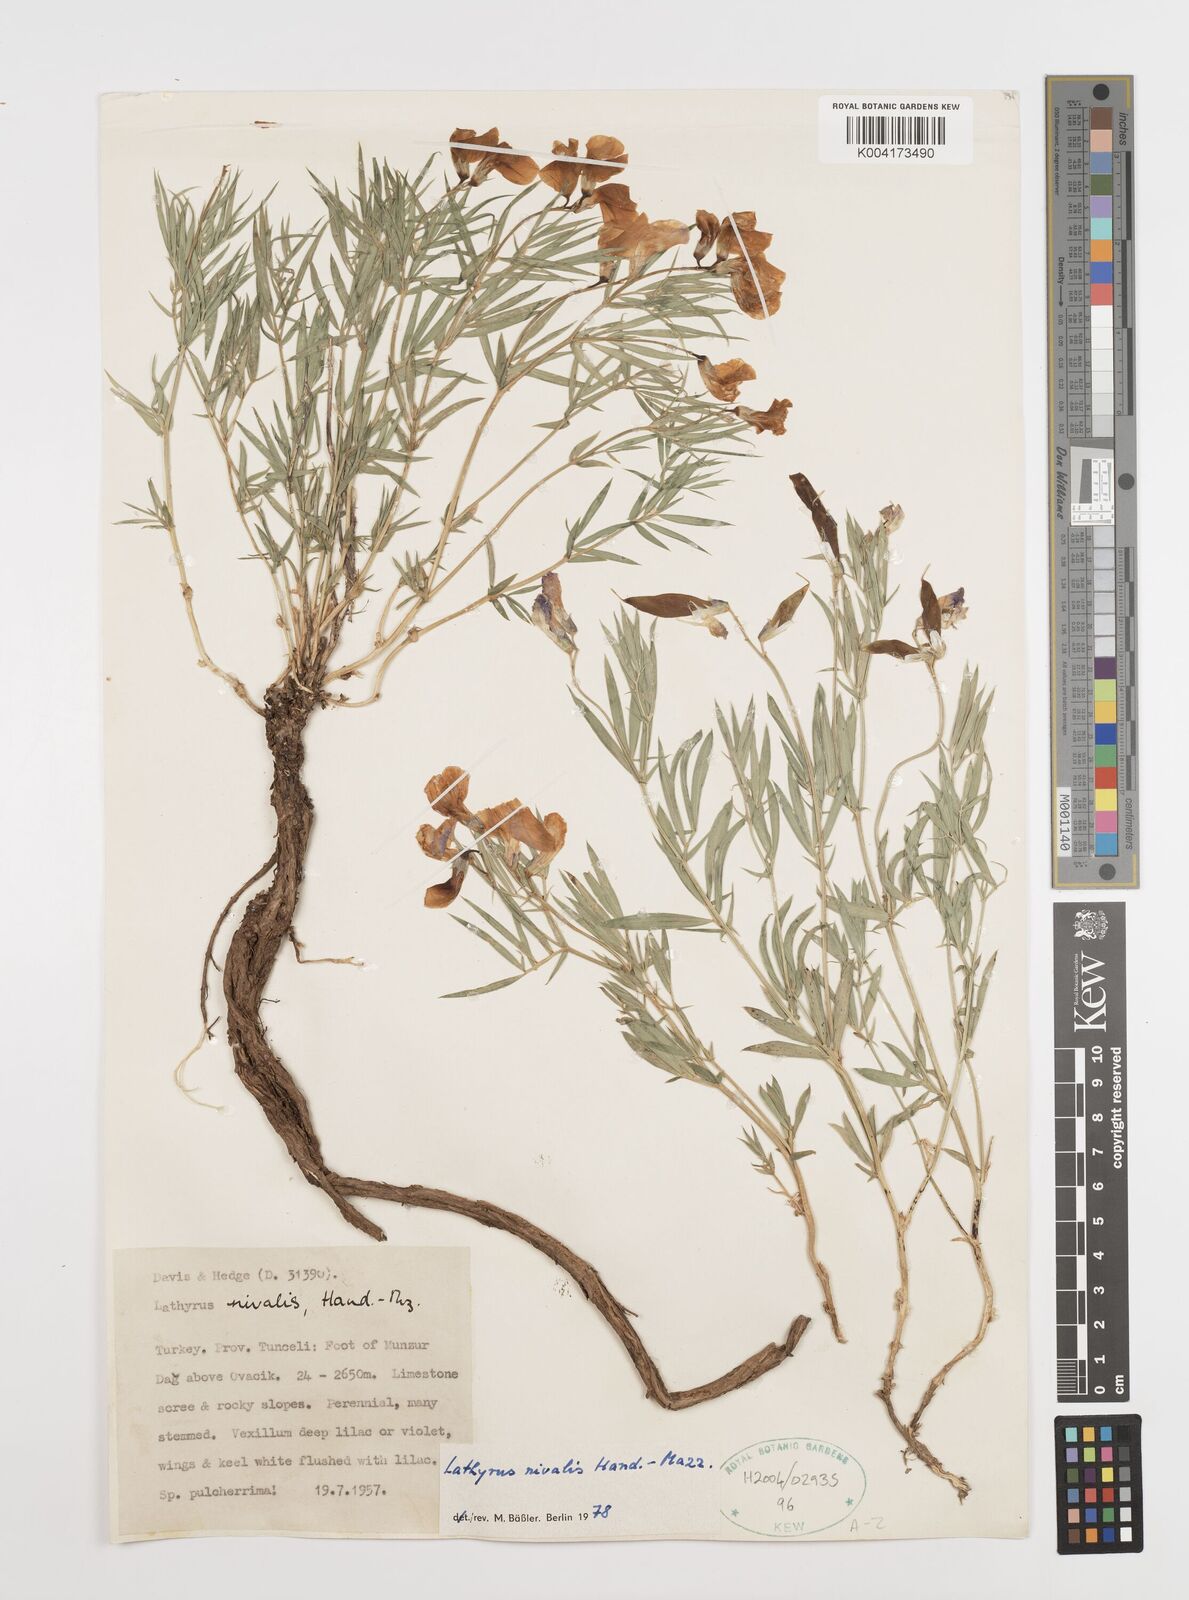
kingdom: Plantae
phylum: Tracheophyta
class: Magnoliopsida
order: Fabales
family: Fabaceae
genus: Lathyrus
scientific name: Lathyrus nivalis
